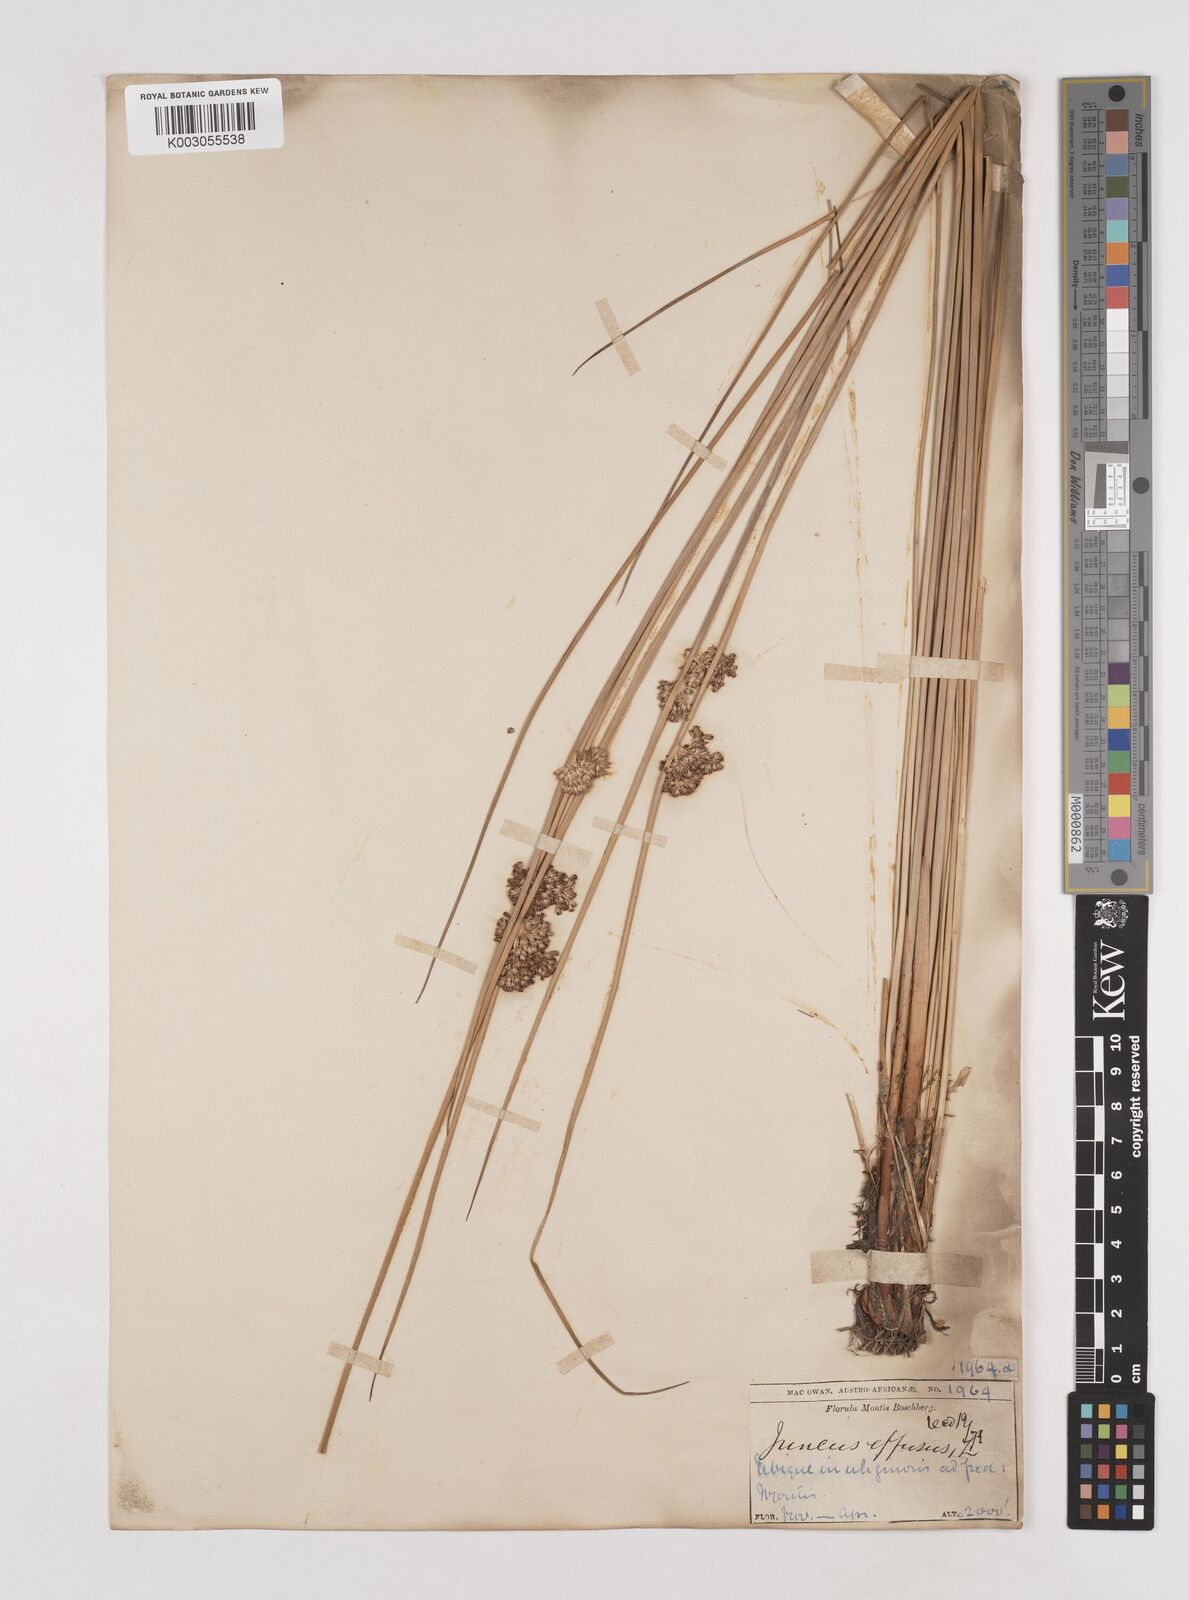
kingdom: Plantae
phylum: Tracheophyta
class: Liliopsida
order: Poales
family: Juncaceae
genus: Juncus
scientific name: Juncus effusus
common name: Soft rush
